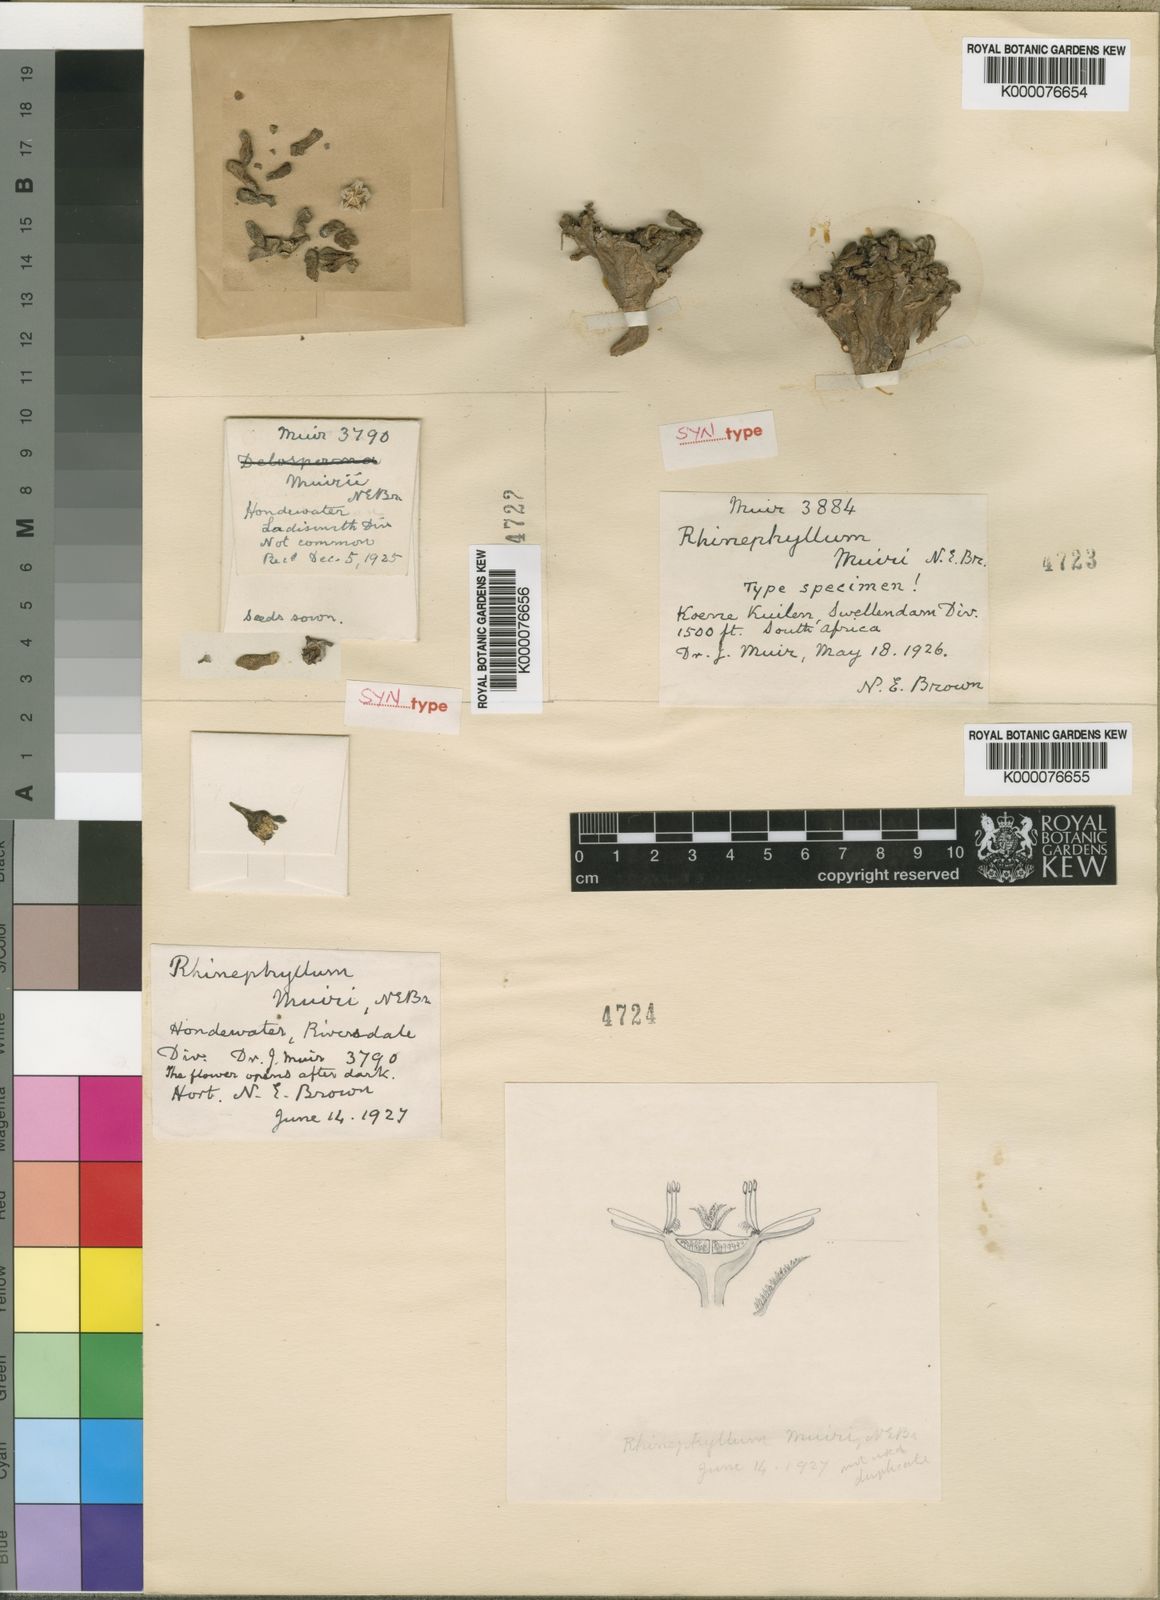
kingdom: Plantae
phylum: Tracheophyta
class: Magnoliopsida
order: Caryophyllales
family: Aizoaceae
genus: Rhinephyllum
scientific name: Rhinephyllum muirii
